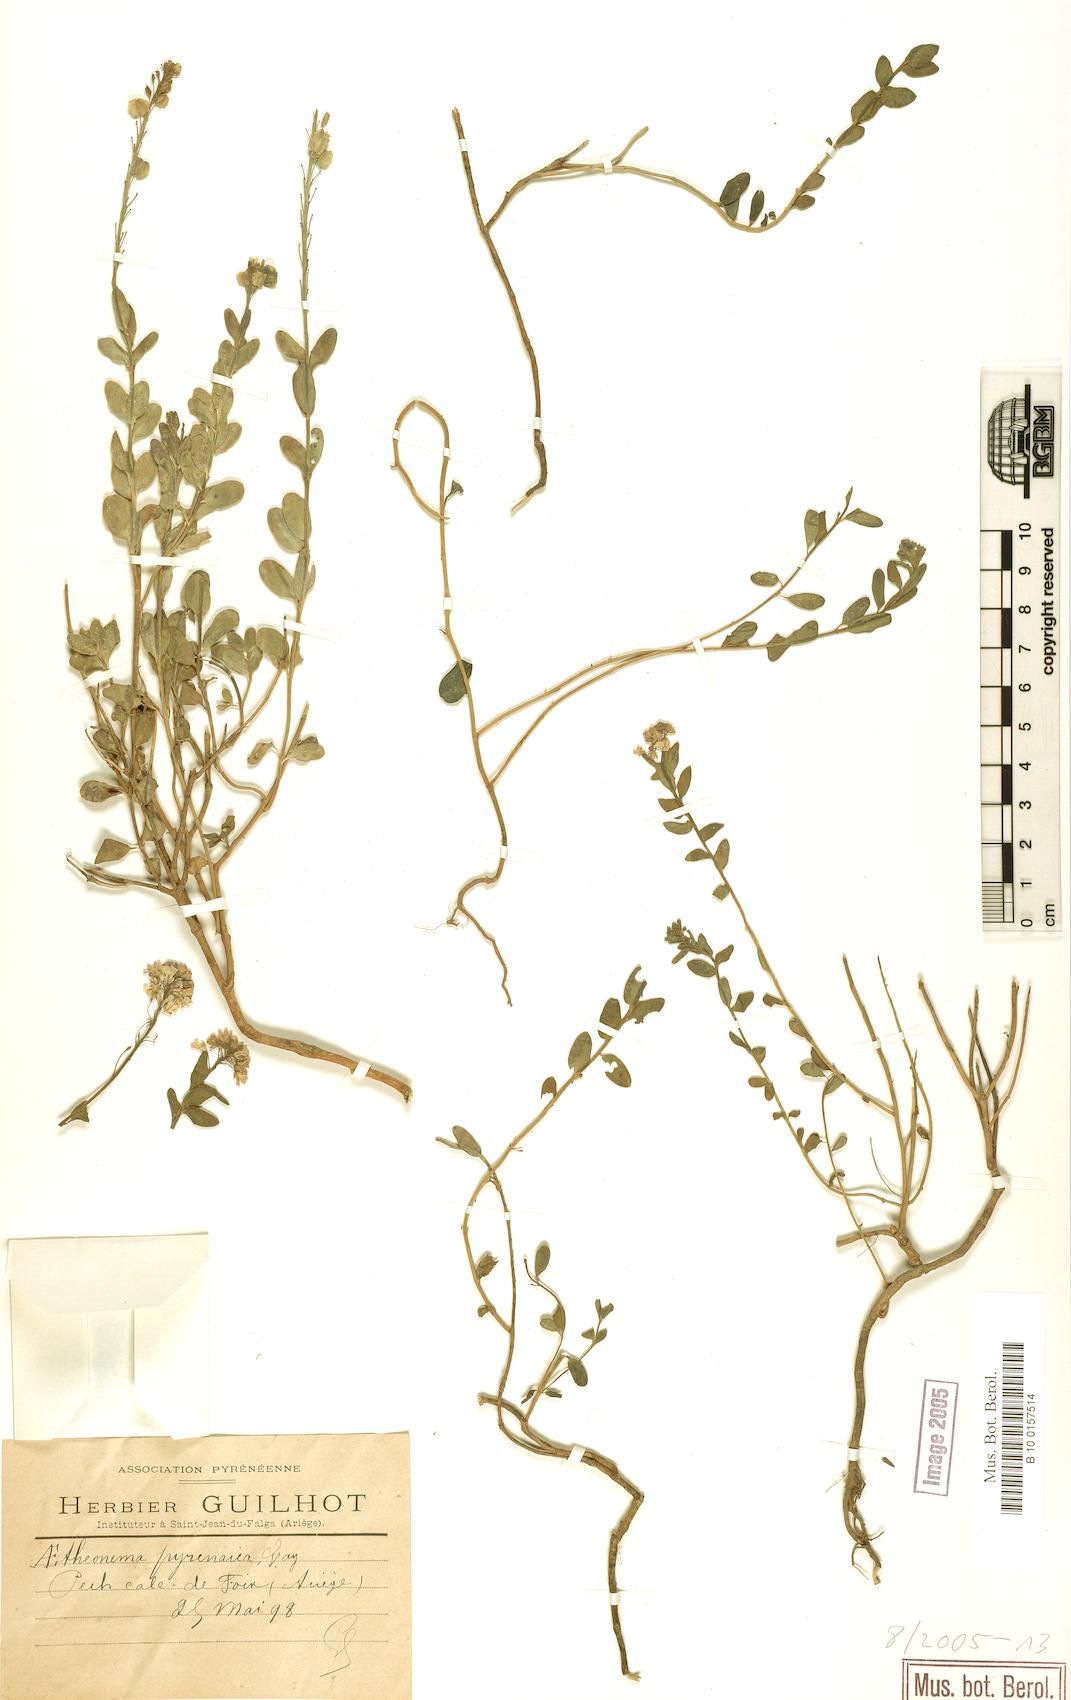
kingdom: Plantae
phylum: Tracheophyta
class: Magnoliopsida
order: Brassicales
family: Brassicaceae
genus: Aethionema
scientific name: Aethionema saxatile
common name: Burnt candytuft
